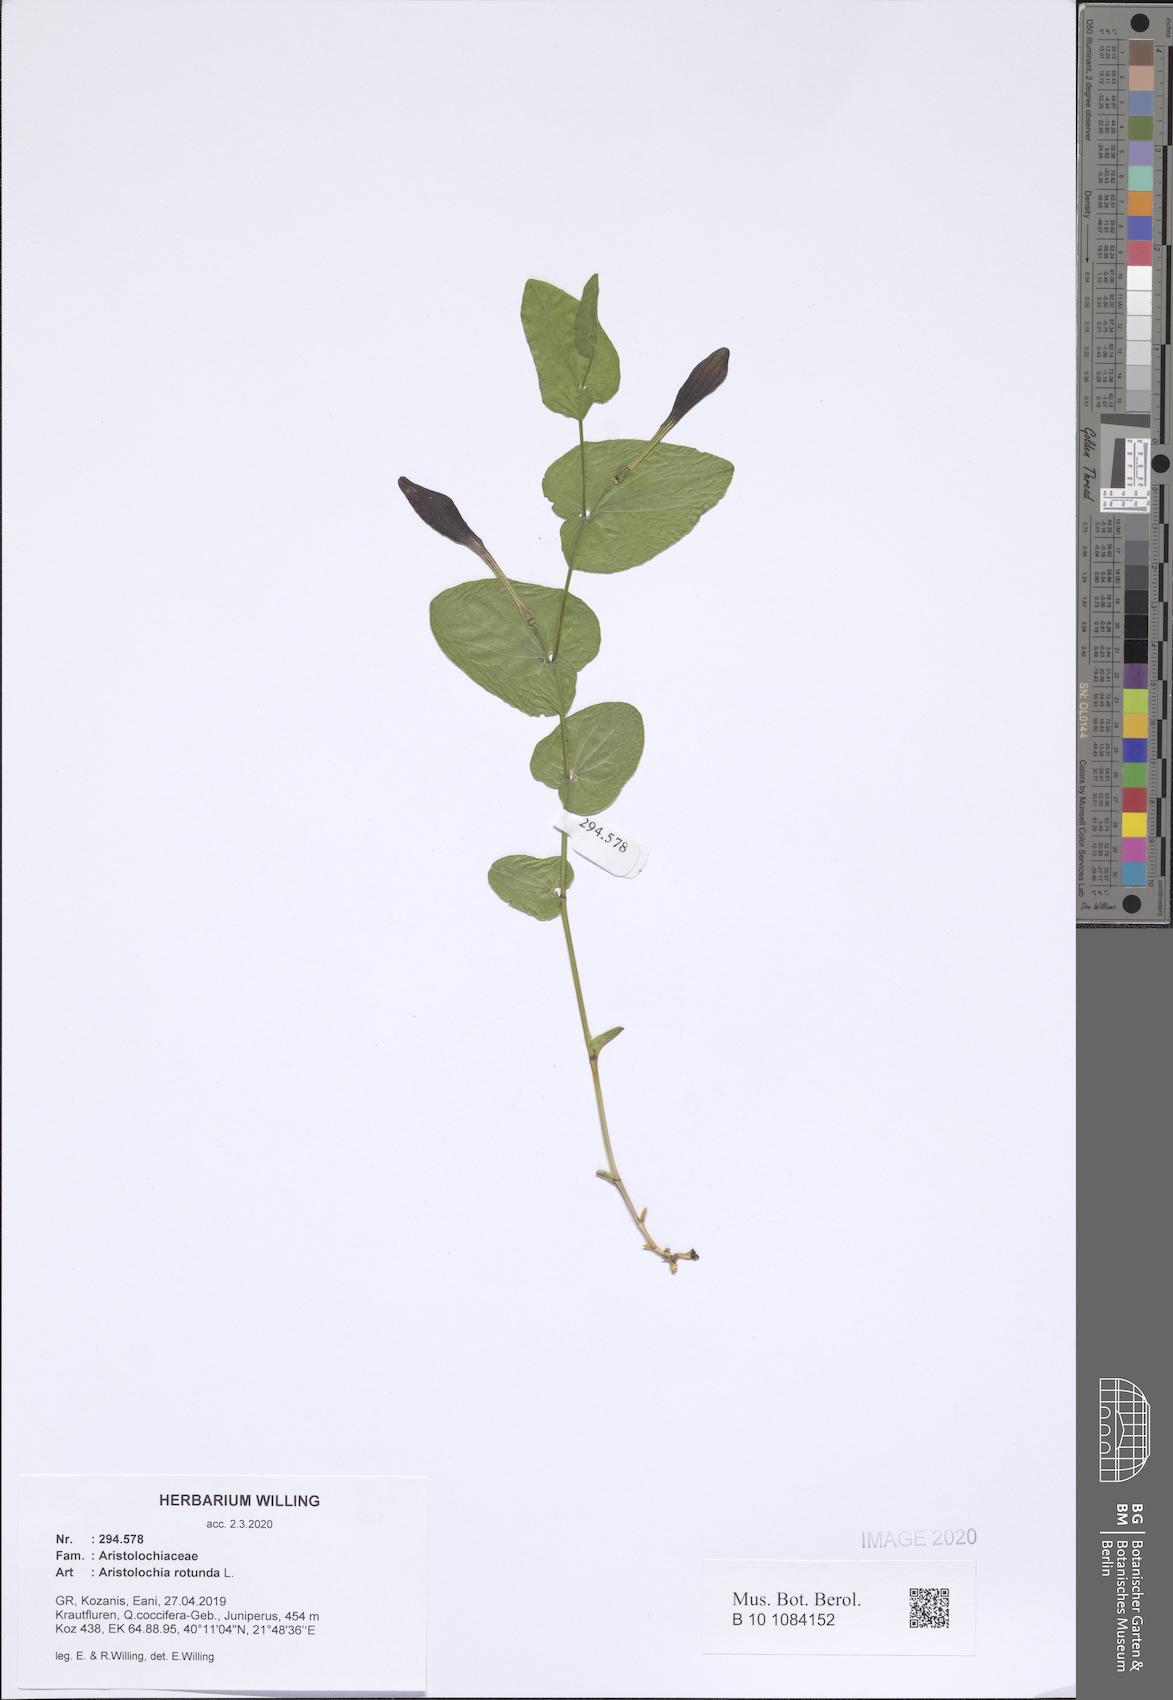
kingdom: Plantae
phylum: Tracheophyta
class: Magnoliopsida
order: Piperales
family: Aristolochiaceae
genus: Aristolochia
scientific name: Aristolochia rotunda
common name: Smearwort
